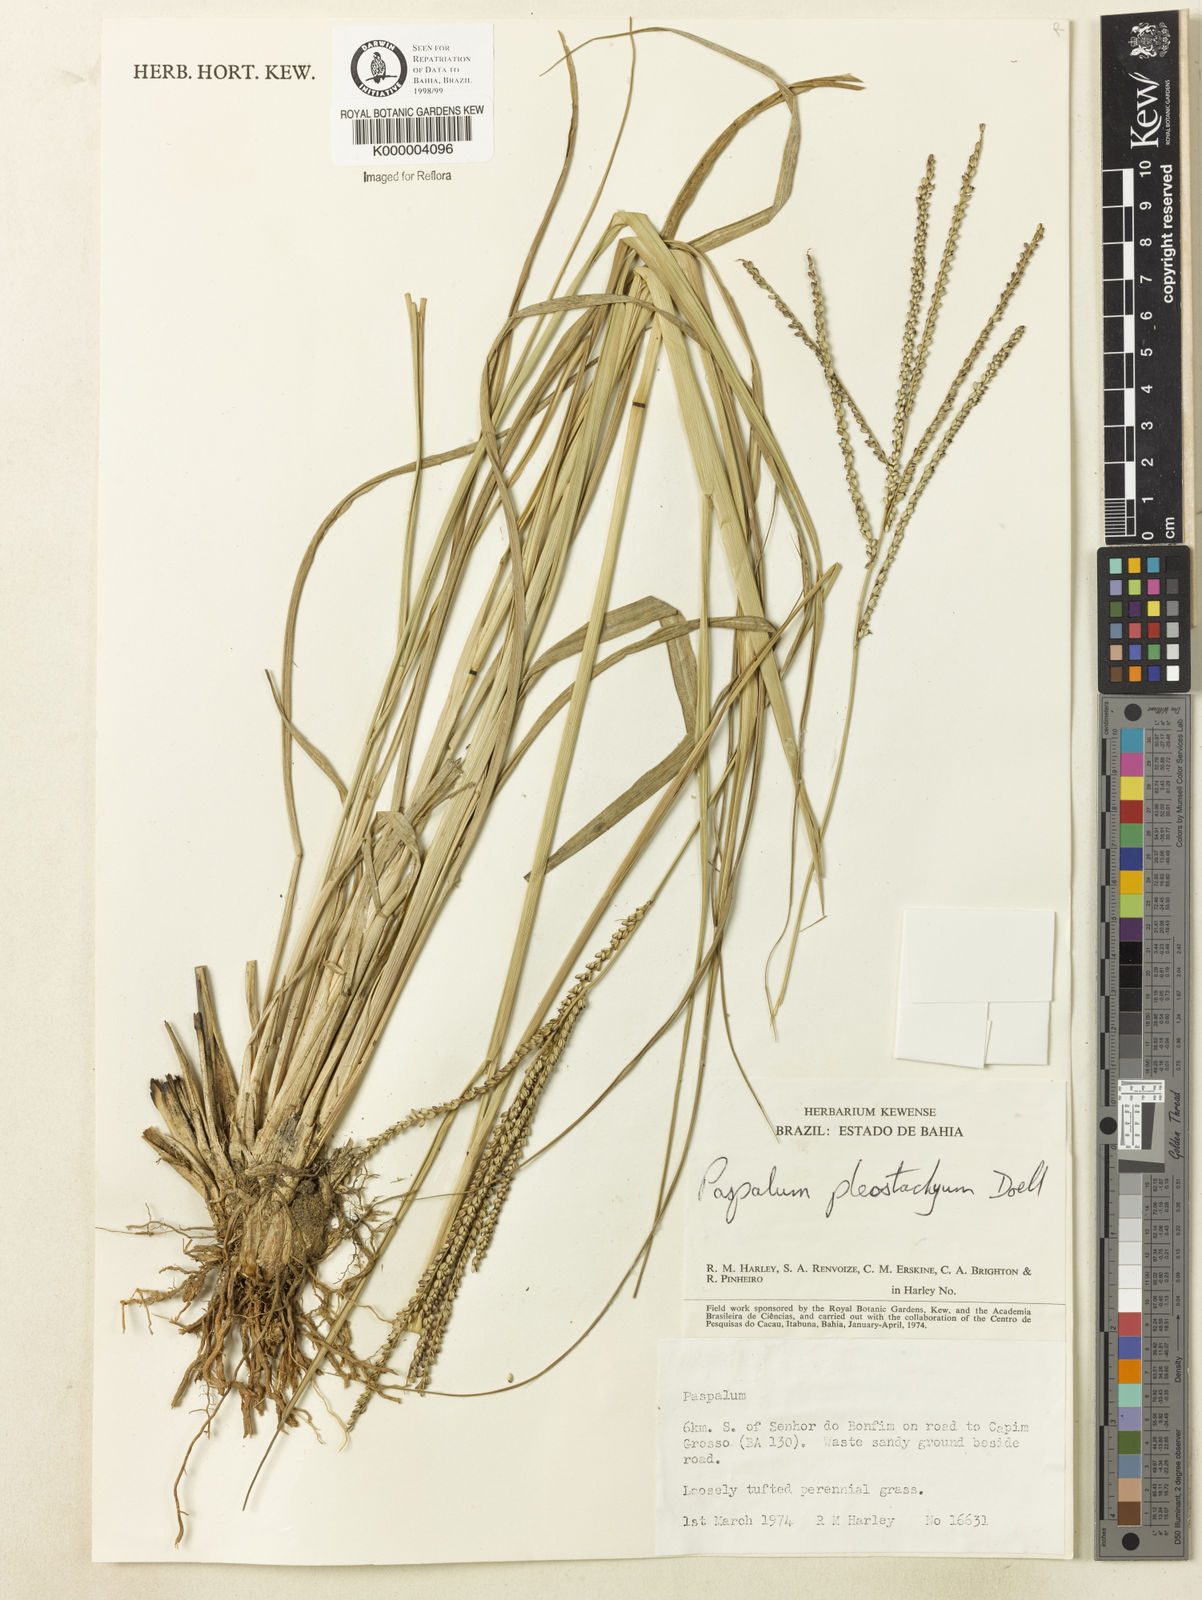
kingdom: Plantae
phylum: Tracheophyta
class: Liliopsida
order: Poales
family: Poaceae
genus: Paspalum
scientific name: Paspalum
